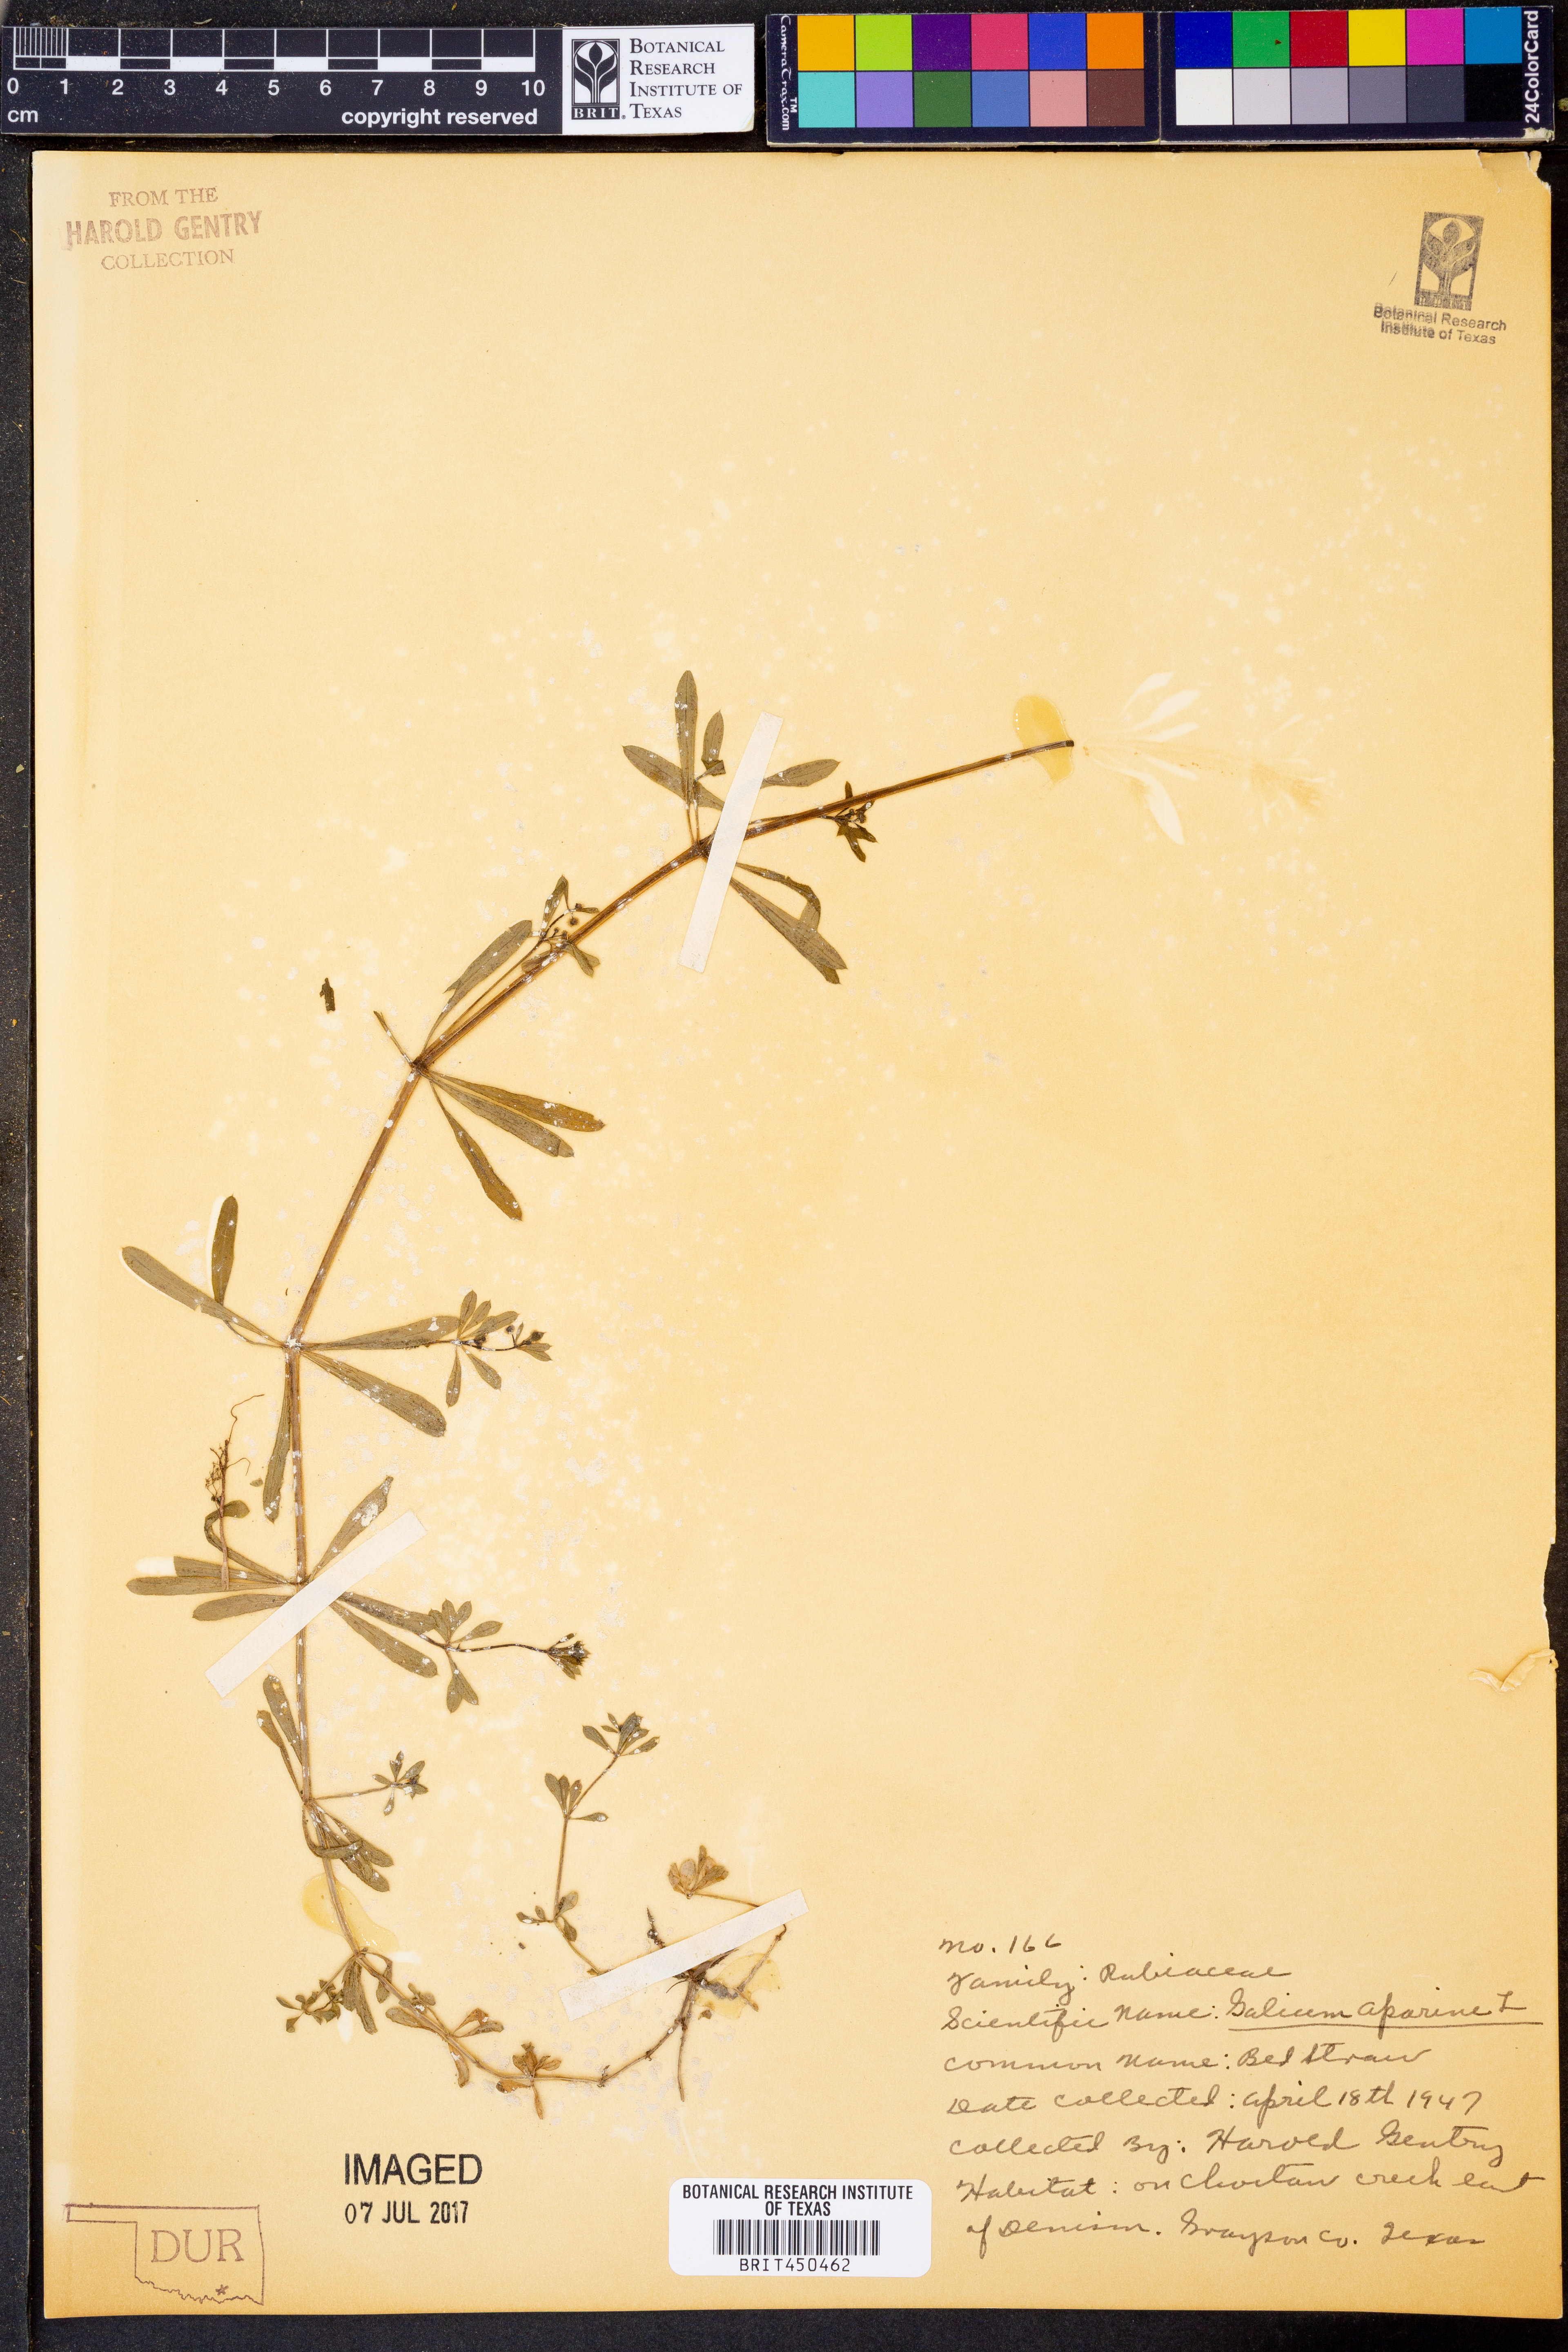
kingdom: Plantae
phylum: Tracheophyta
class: Magnoliopsida
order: Gentianales
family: Rubiaceae
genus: Galium
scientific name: Galium aparine
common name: Cleavers
